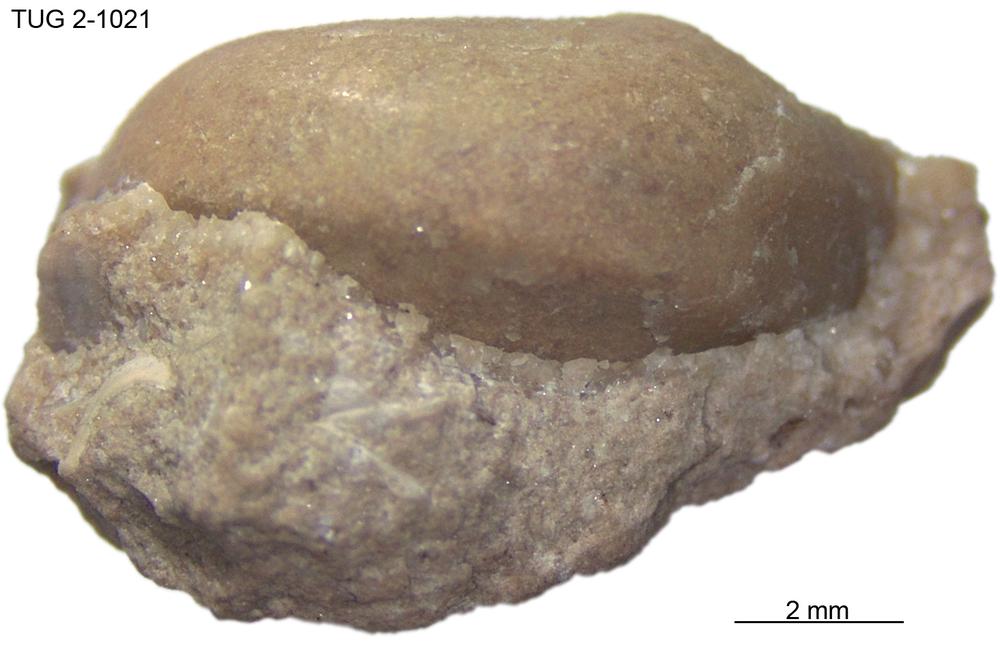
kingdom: Animalia
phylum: Mollusca
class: Gastropoda
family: Lophospiridae
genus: Lophospira
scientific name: Lophospira
